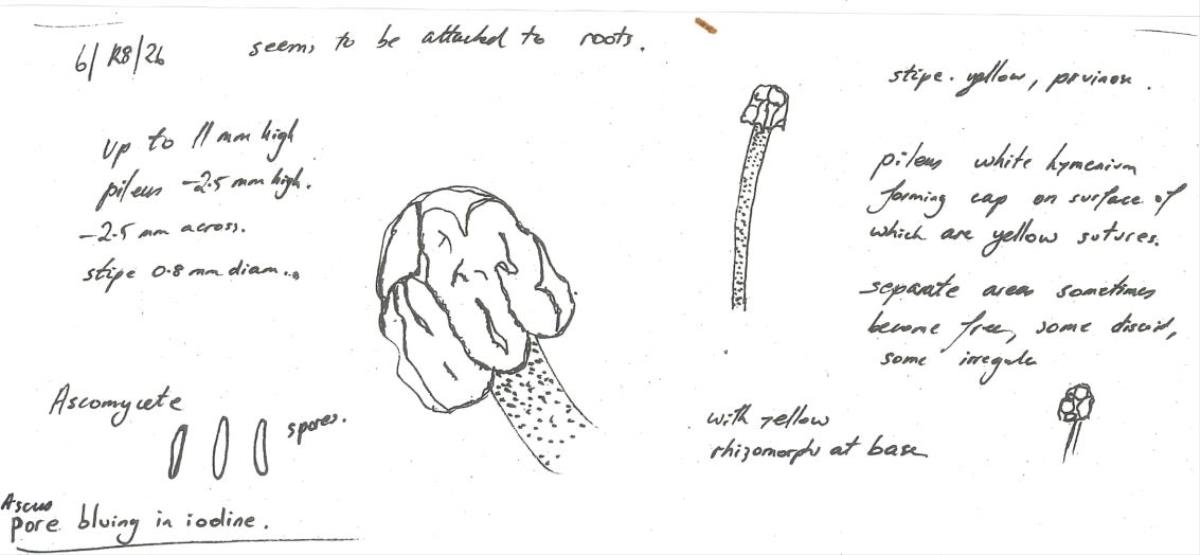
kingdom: Fungi
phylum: Ascomycota
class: Leotiomycetes
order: Helotiales
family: Chlorociboriaceae
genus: Brahmaculus
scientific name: Brahmaculus packhamiae
